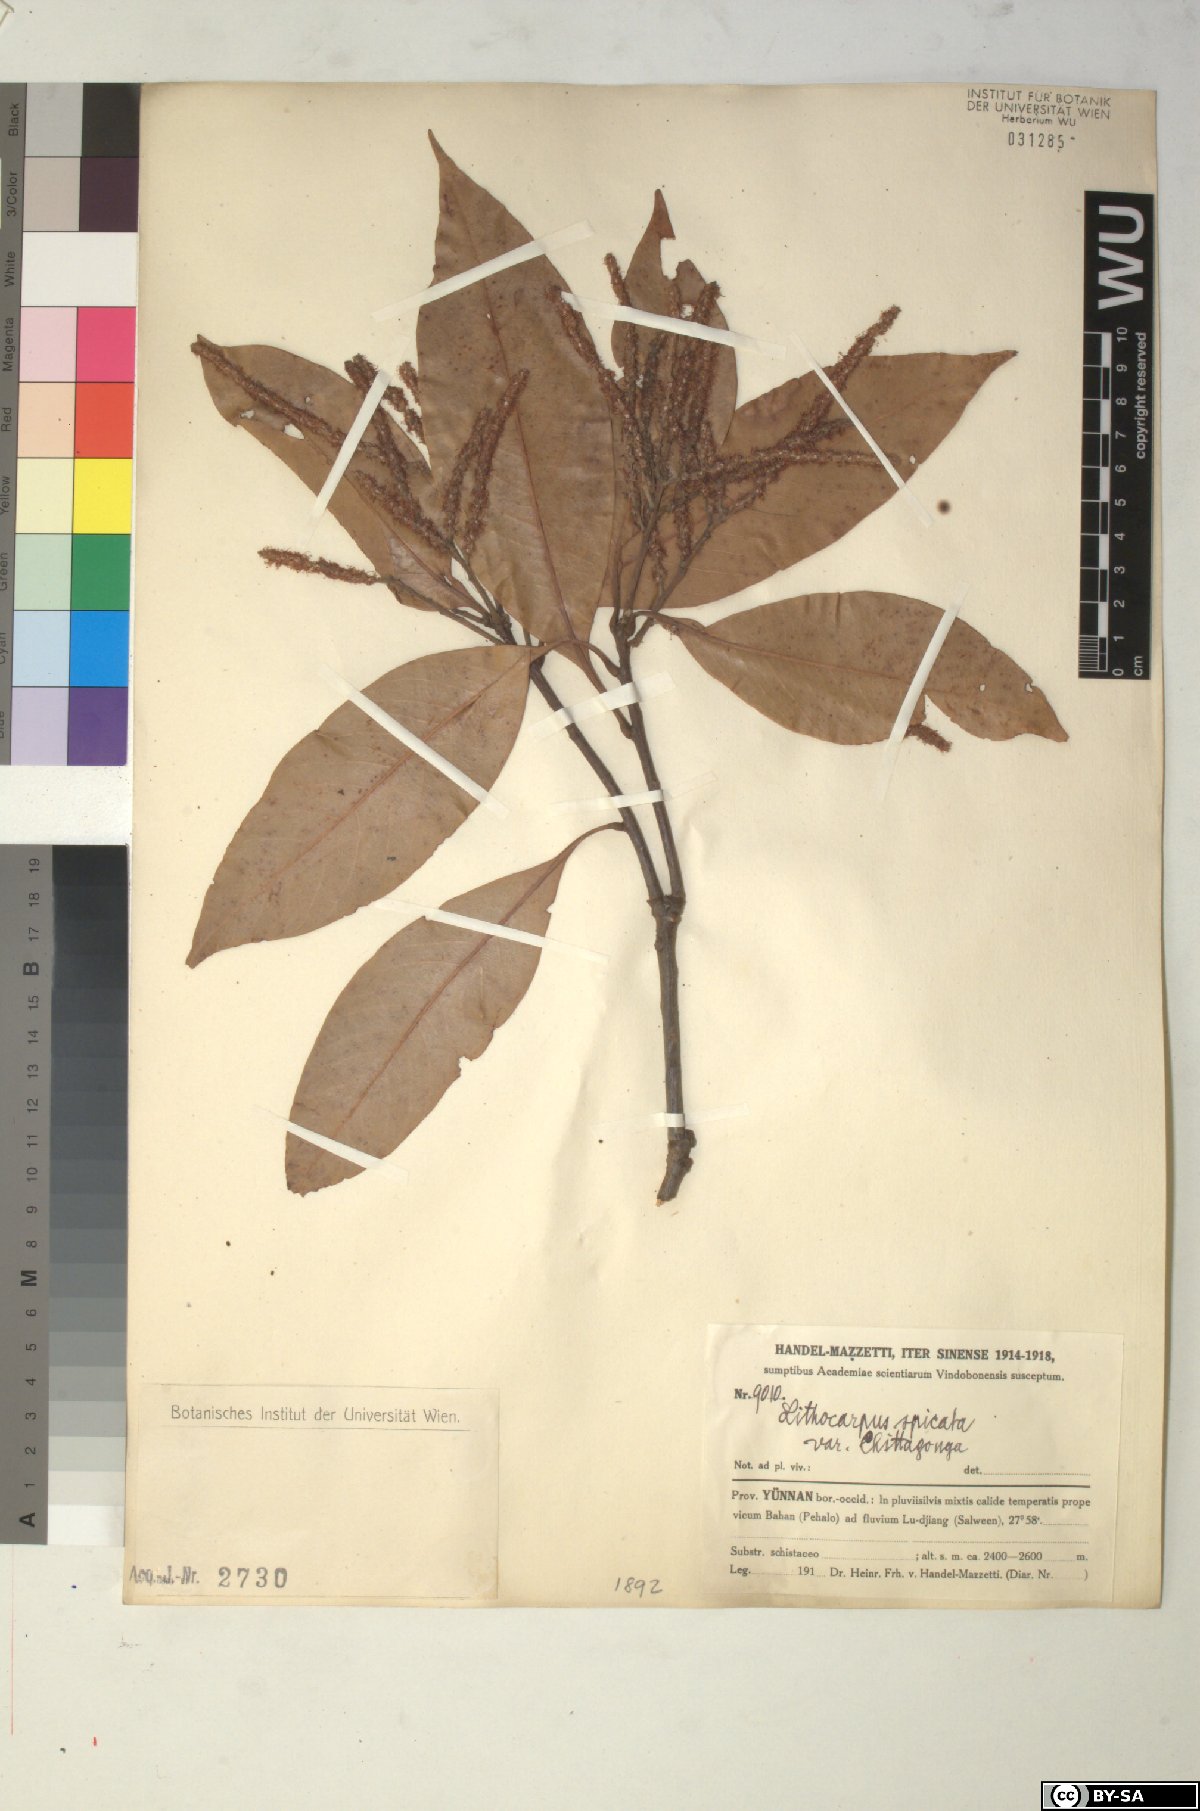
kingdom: Plantae
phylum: Tracheophyta
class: Magnoliopsida
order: Fagales
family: Fagaceae
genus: Lithocarpus
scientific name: Lithocarpus elegans
